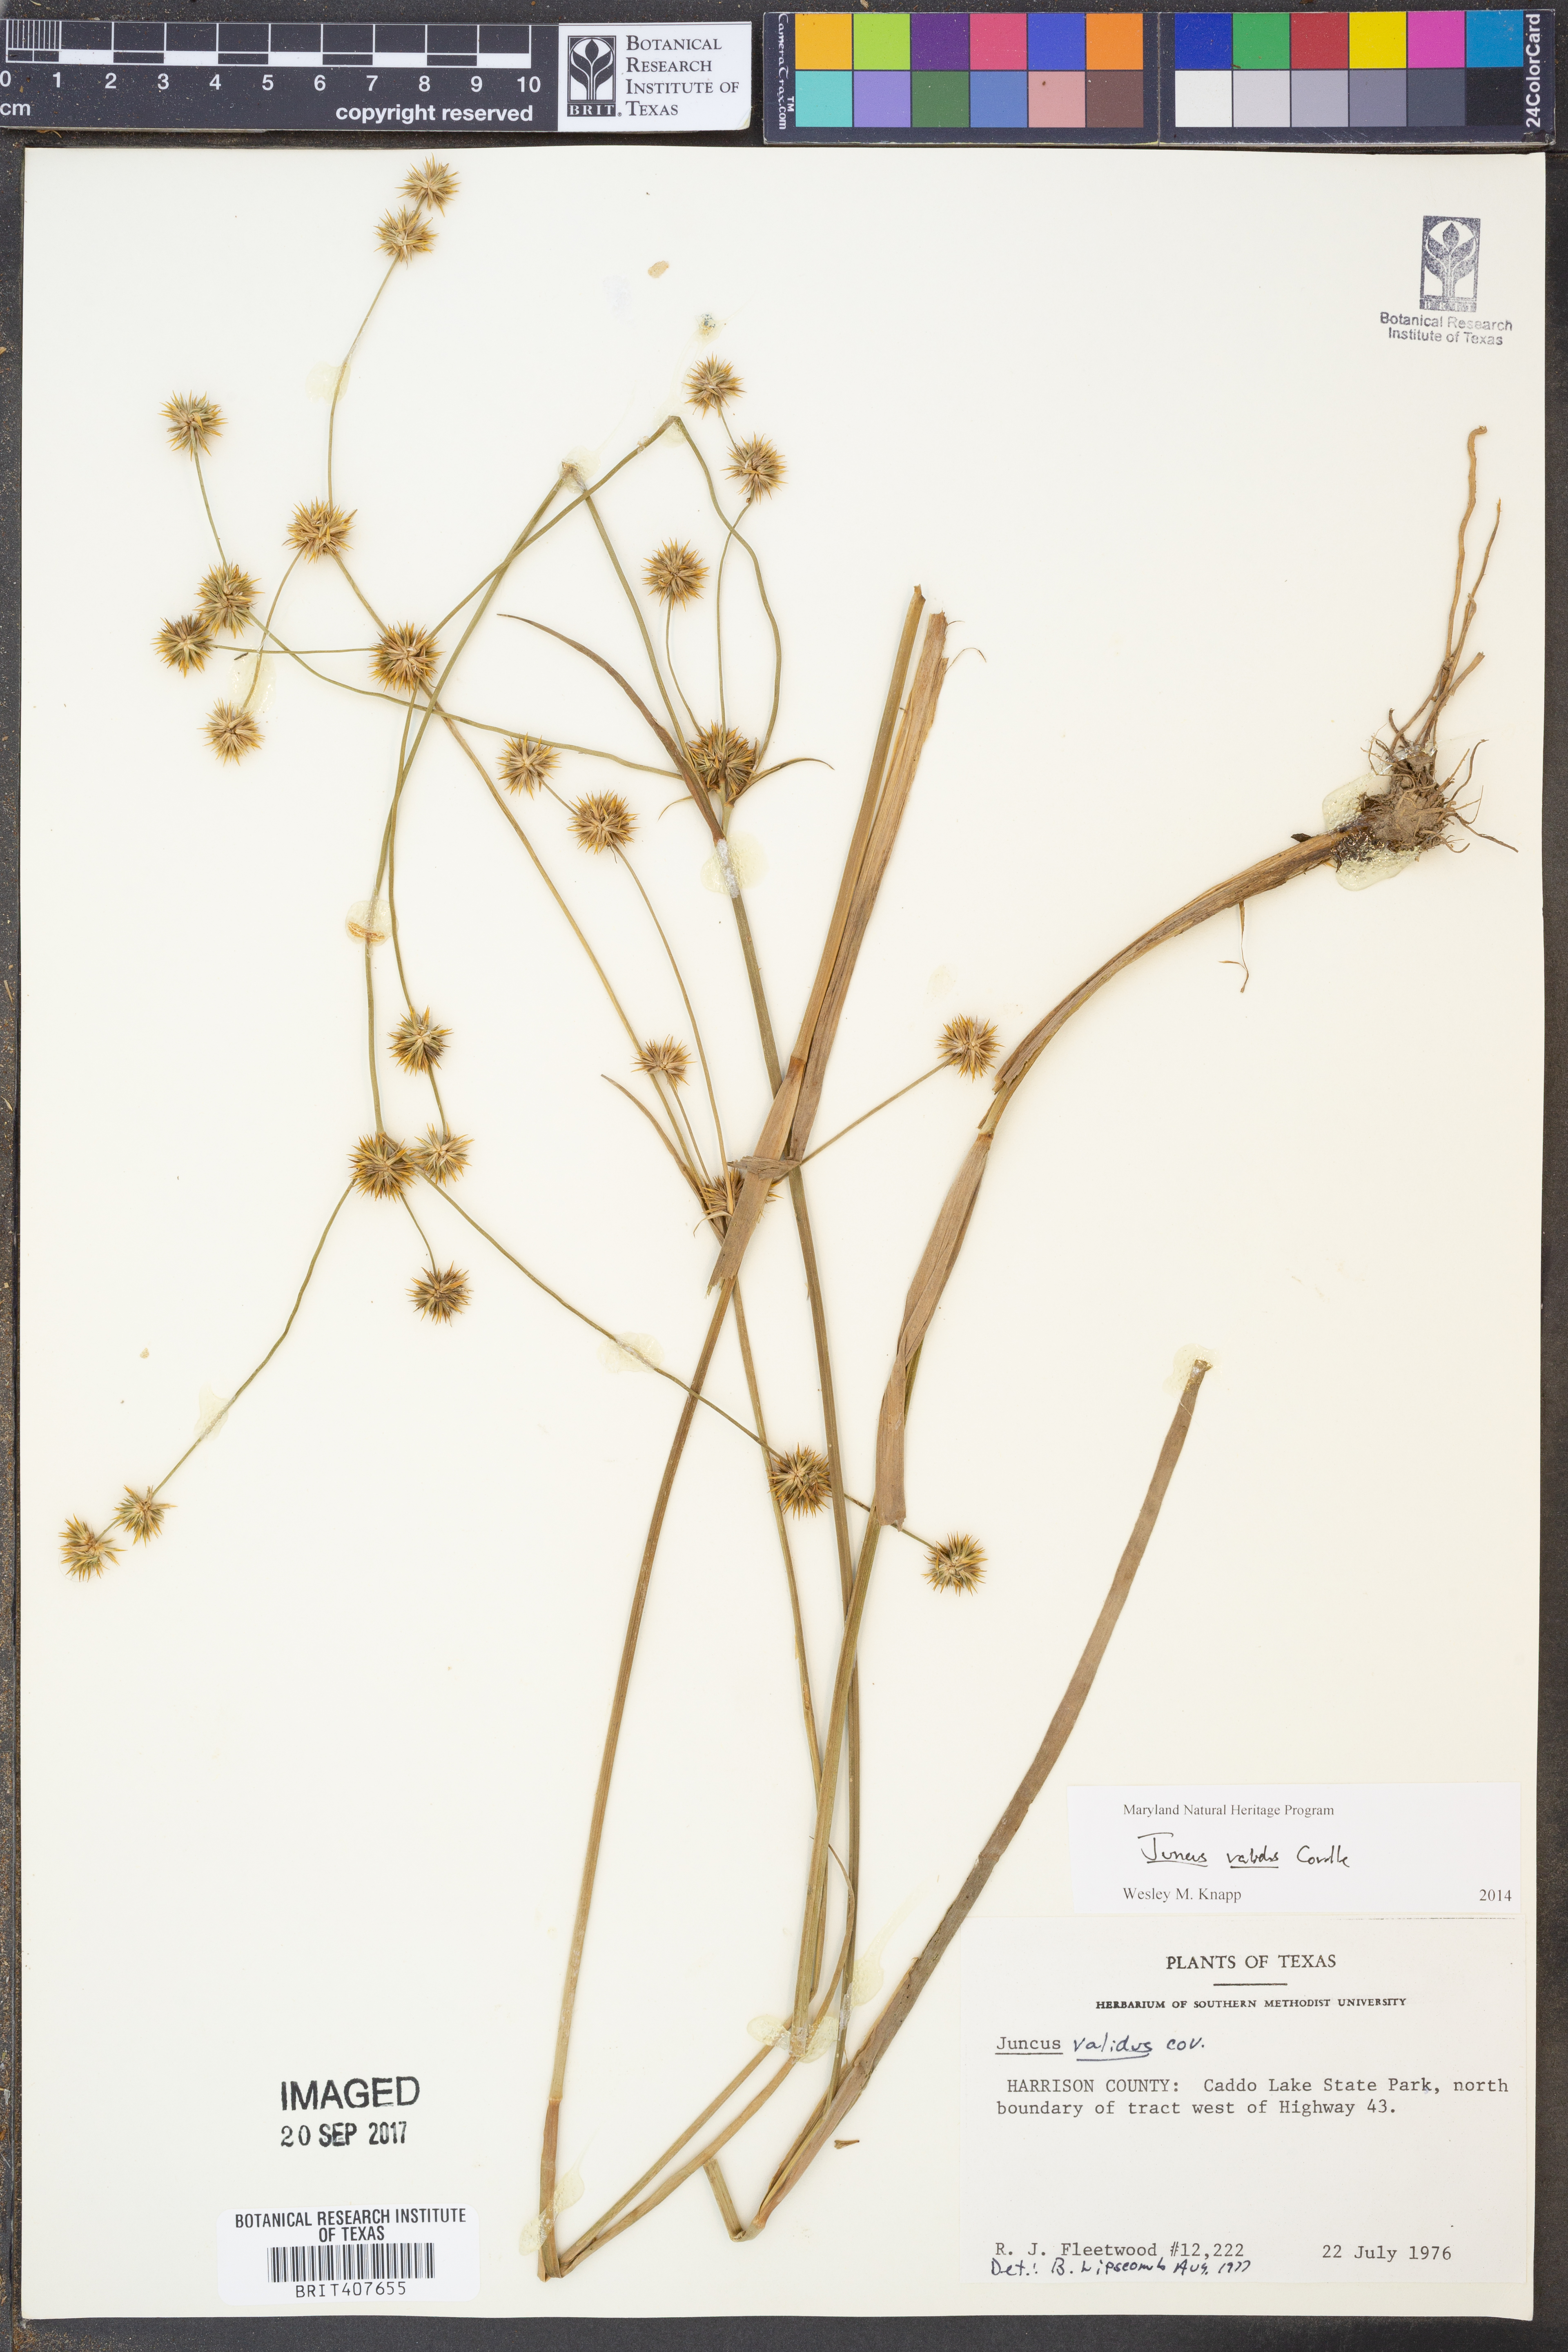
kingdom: Plantae
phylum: Tracheophyta
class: Liliopsida
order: Poales
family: Juncaceae
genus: Juncus
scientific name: Juncus validus
